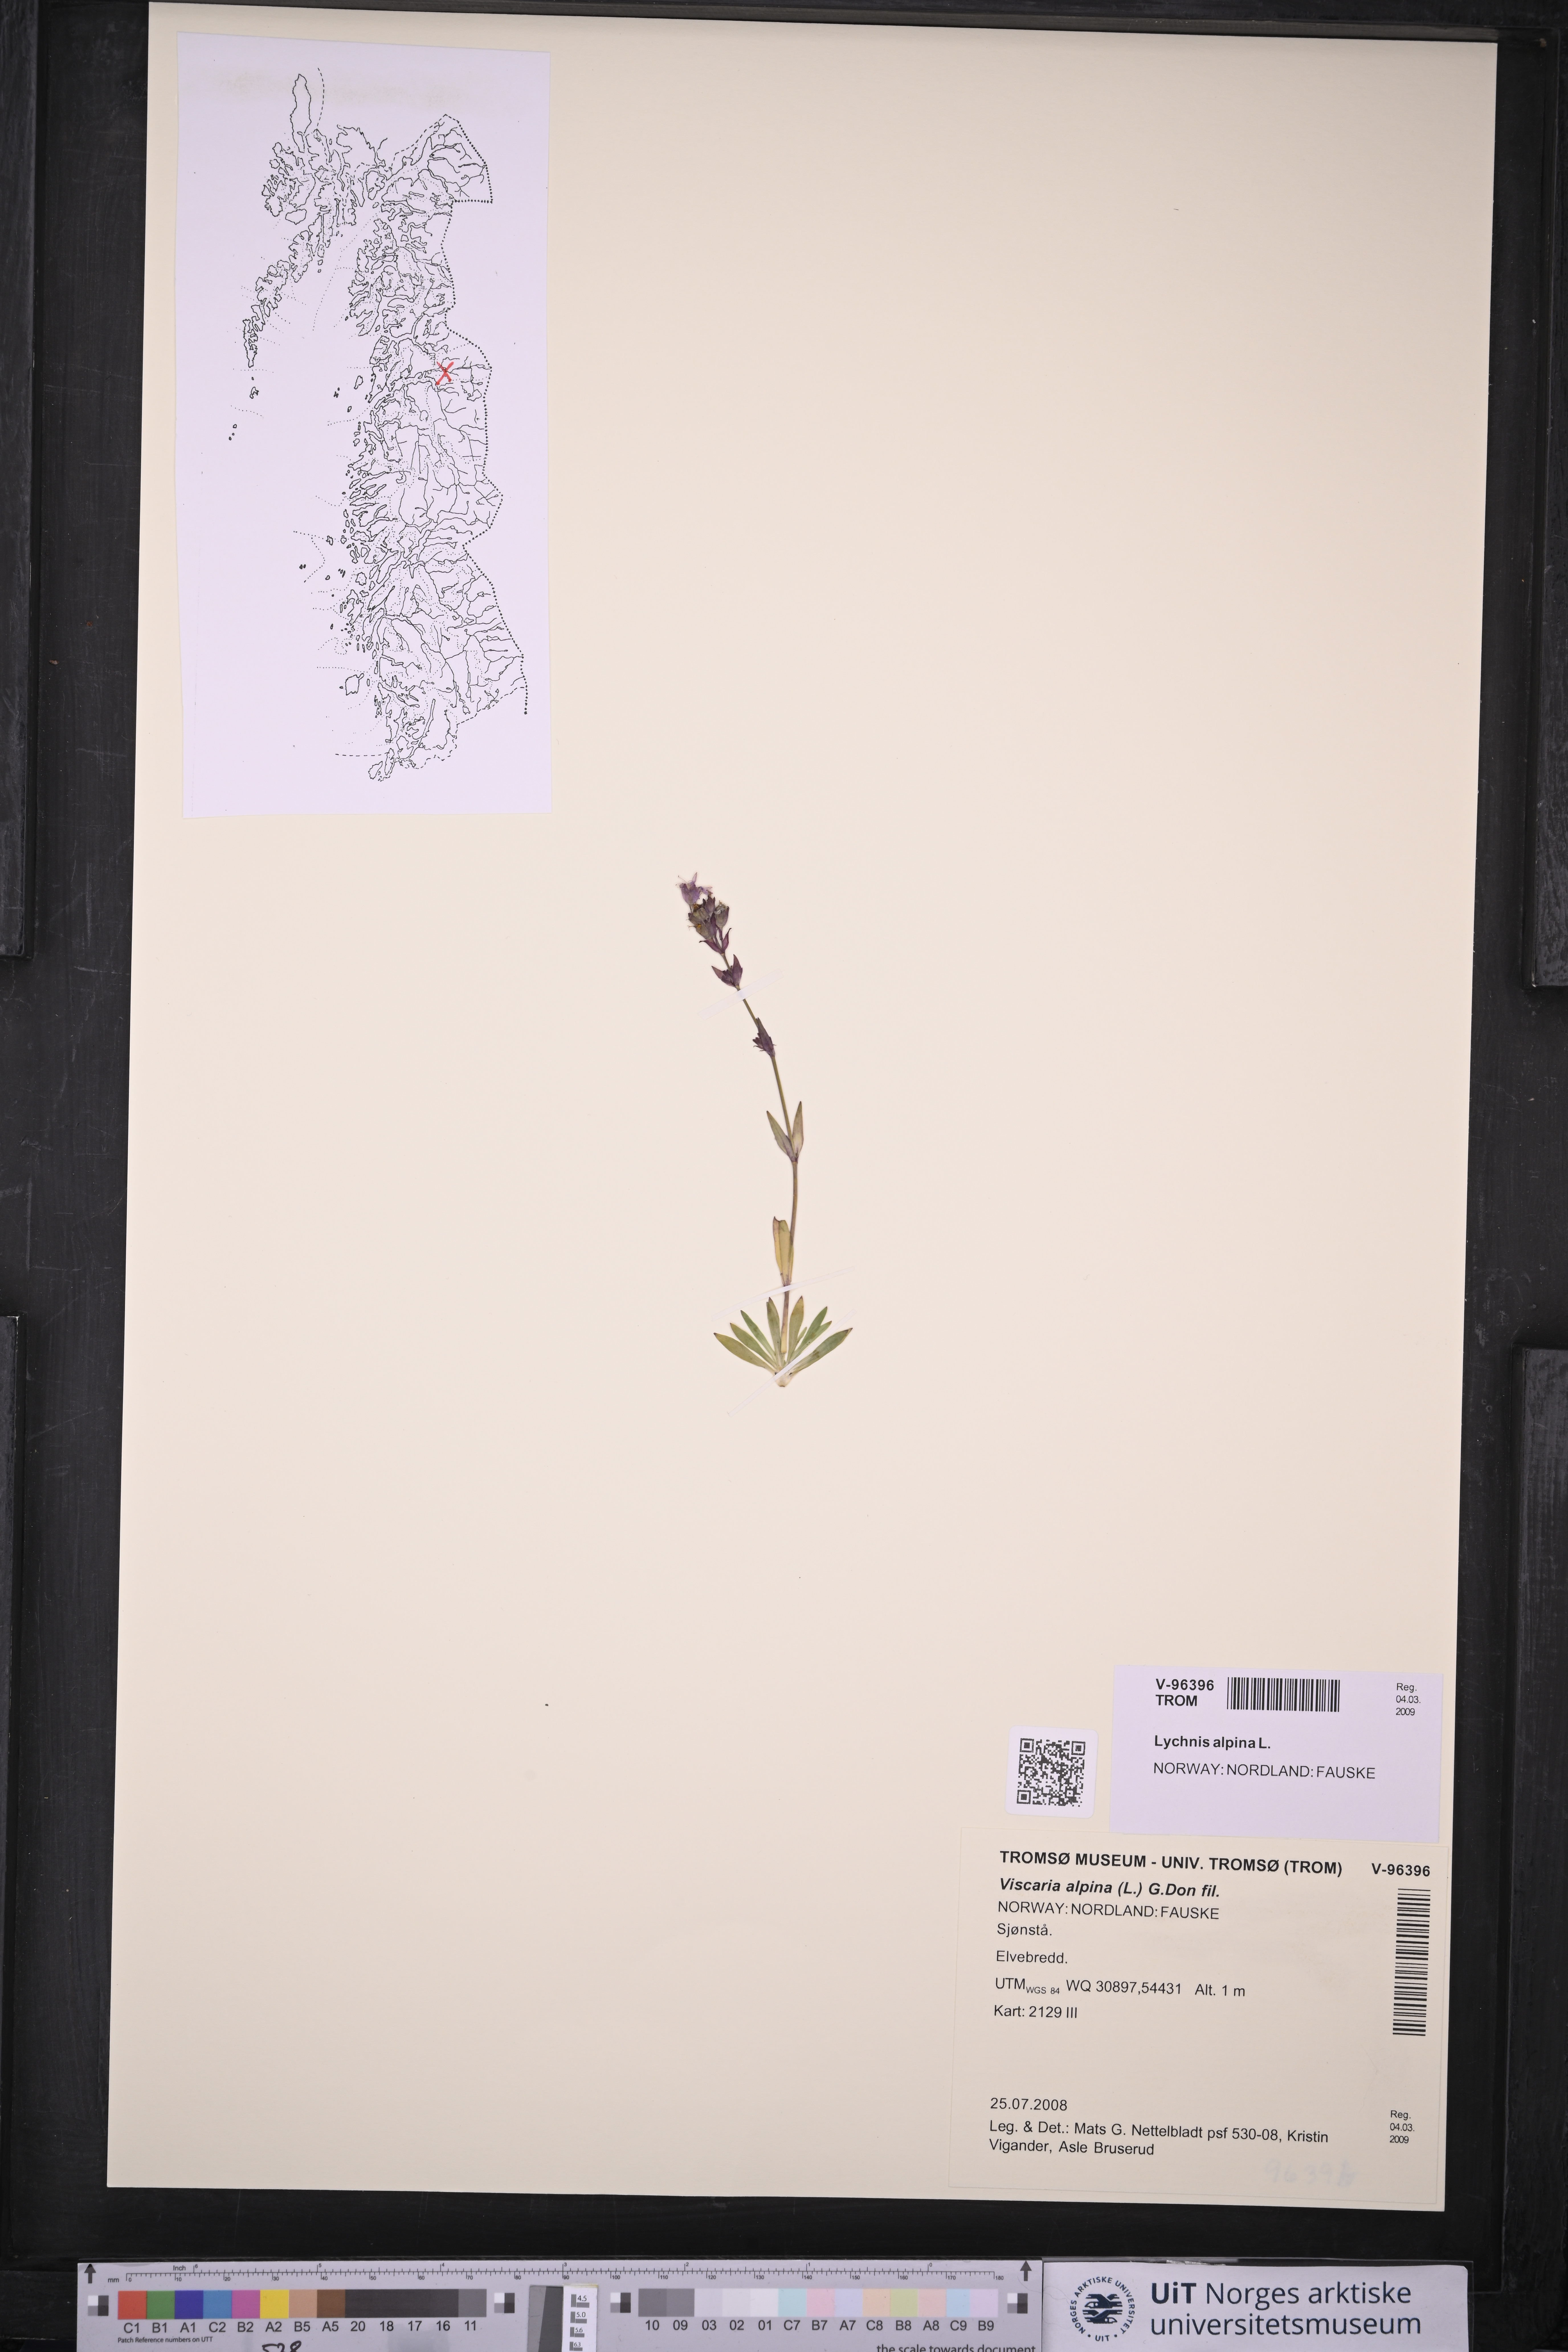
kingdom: Plantae
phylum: Tracheophyta
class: Magnoliopsida
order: Caryophyllales
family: Caryophyllaceae
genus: Viscaria
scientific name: Viscaria alpina
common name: Alpine campion
